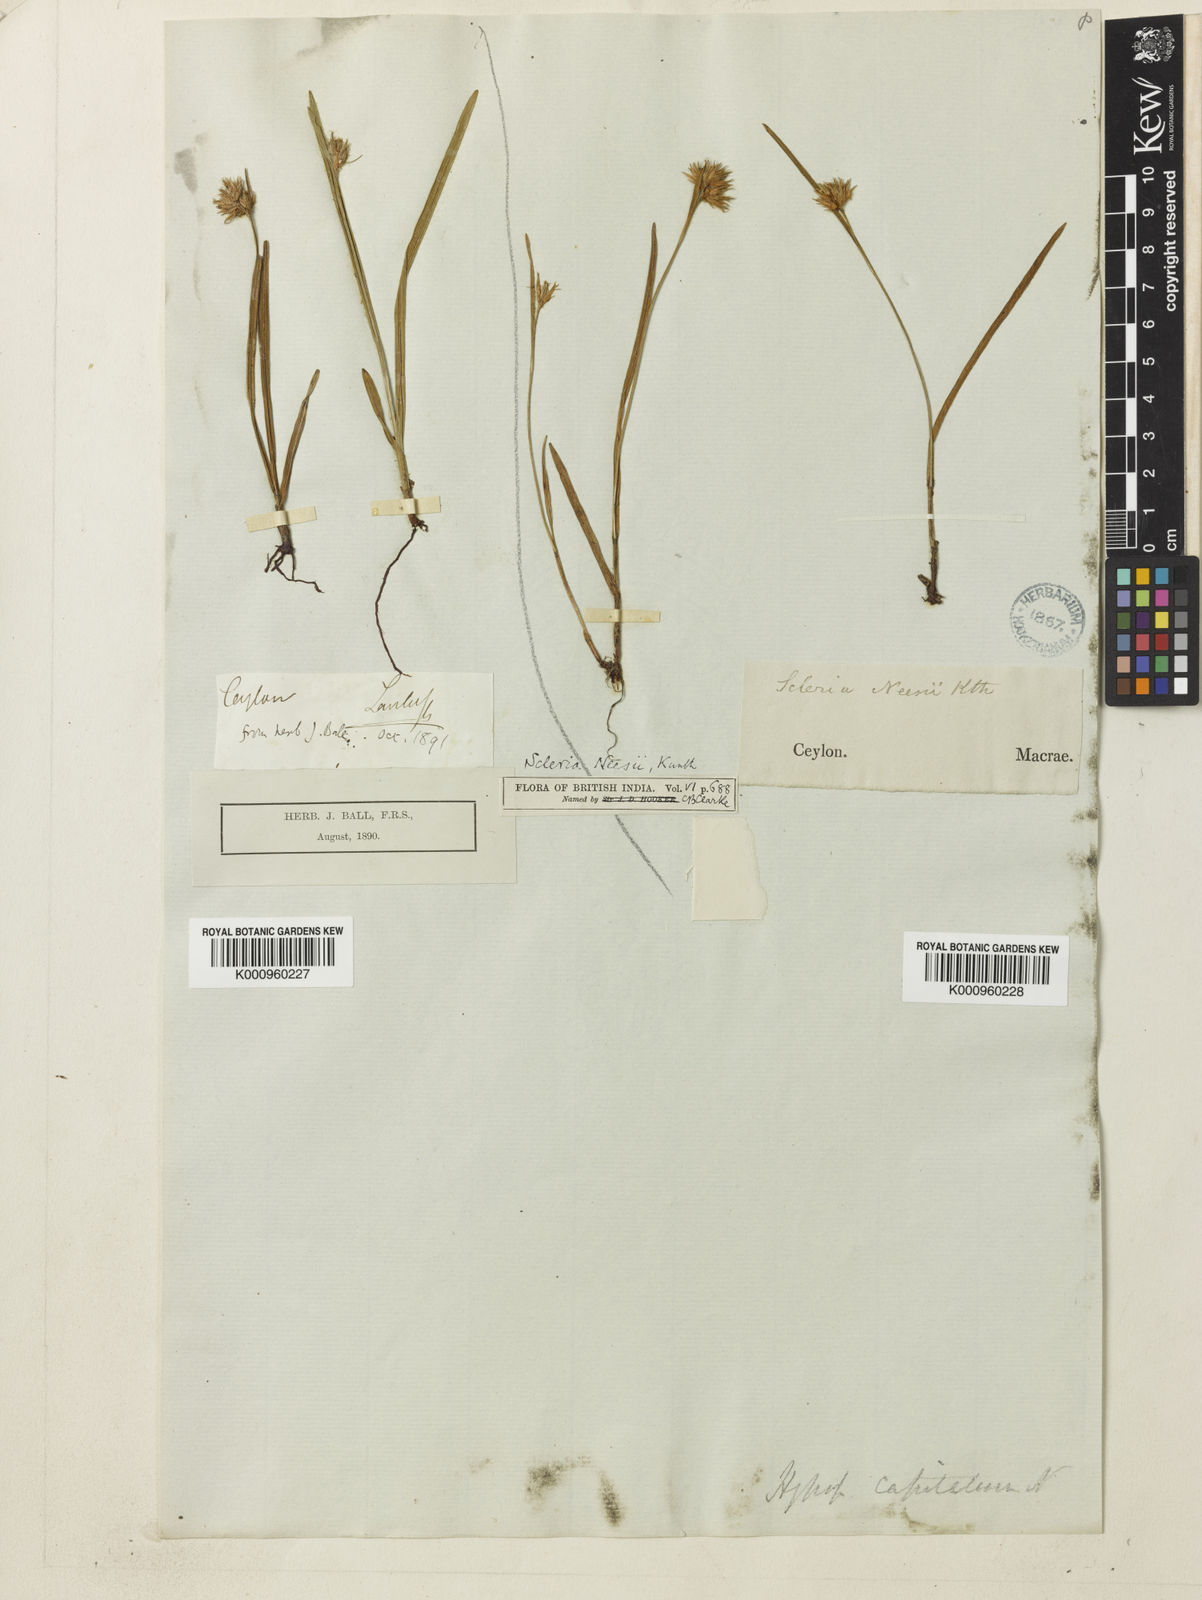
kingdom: Plantae
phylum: Tracheophyta
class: Liliopsida
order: Poales
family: Cyperaceae
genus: Scleria
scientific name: Scleria neesii
